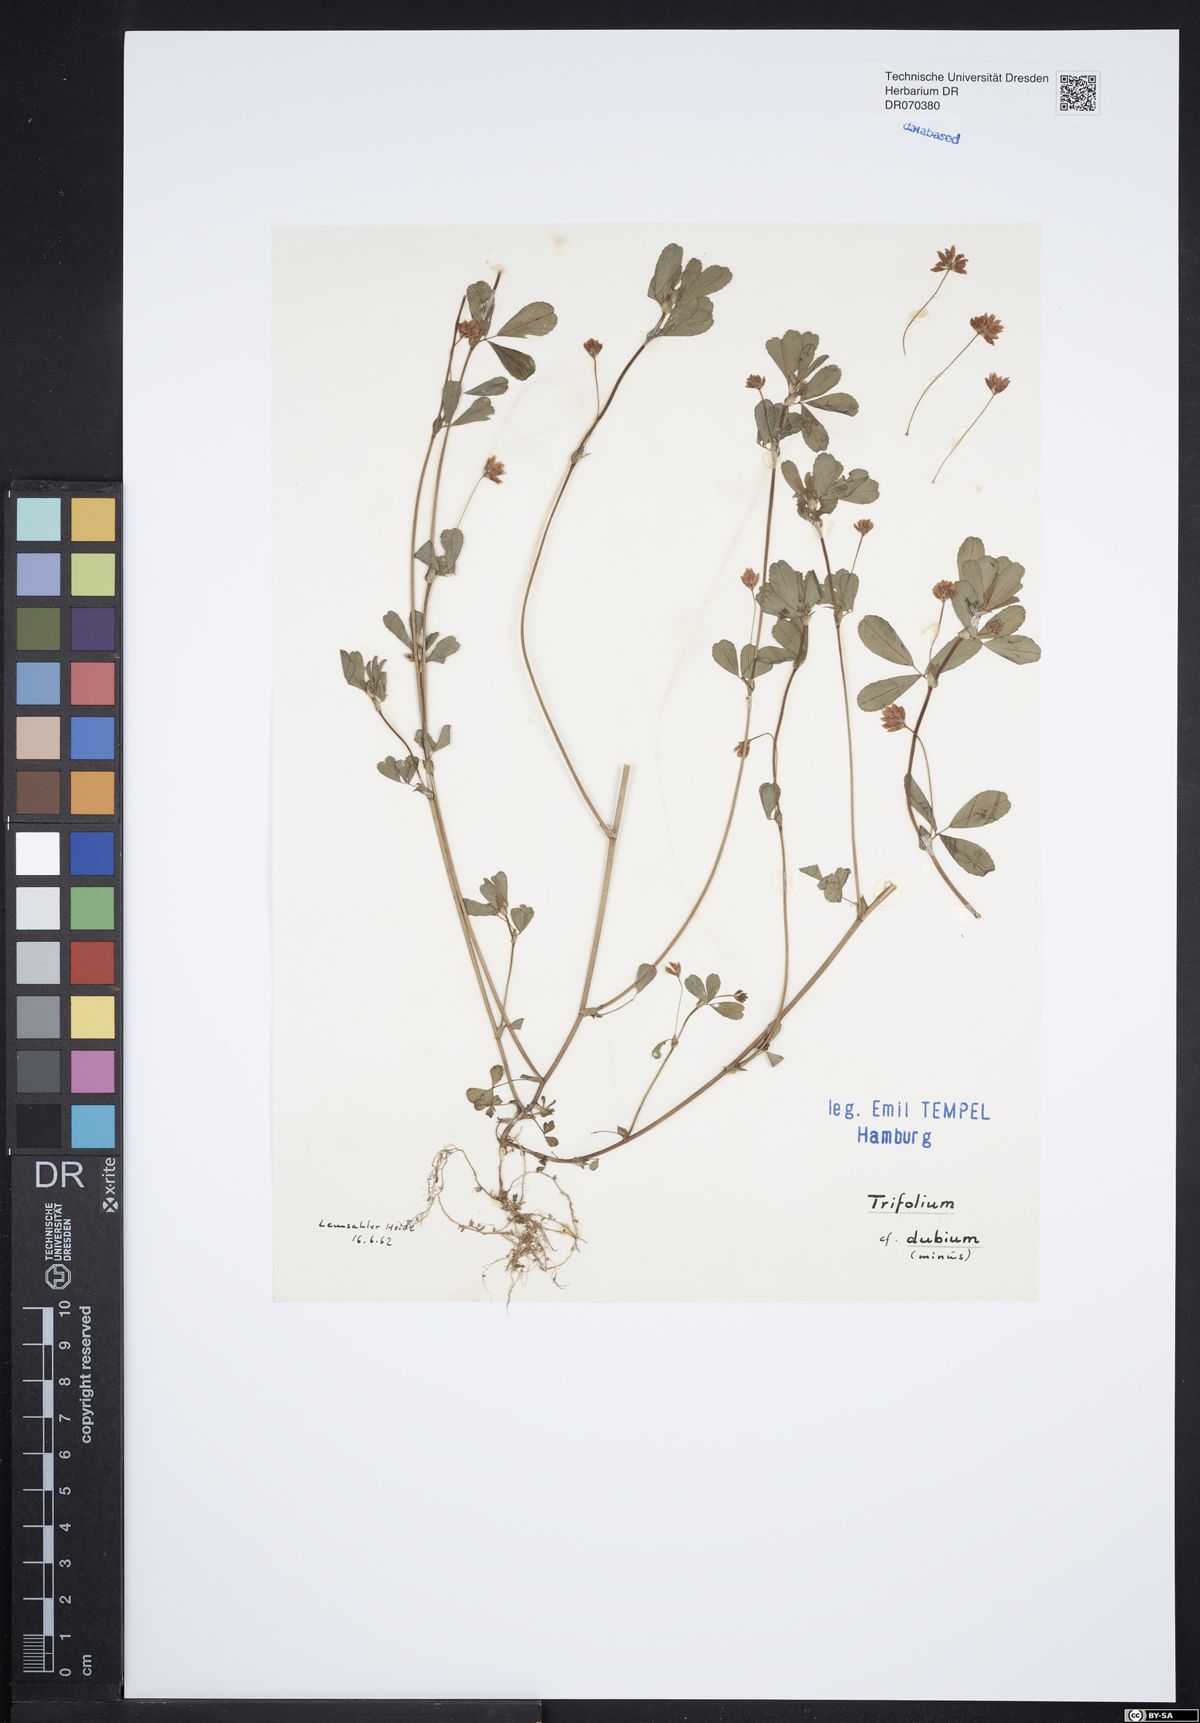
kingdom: Plantae
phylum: Tracheophyta
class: Magnoliopsida
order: Fabales
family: Fabaceae
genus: Trifolium
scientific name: Trifolium dubium
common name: Suckling clover
